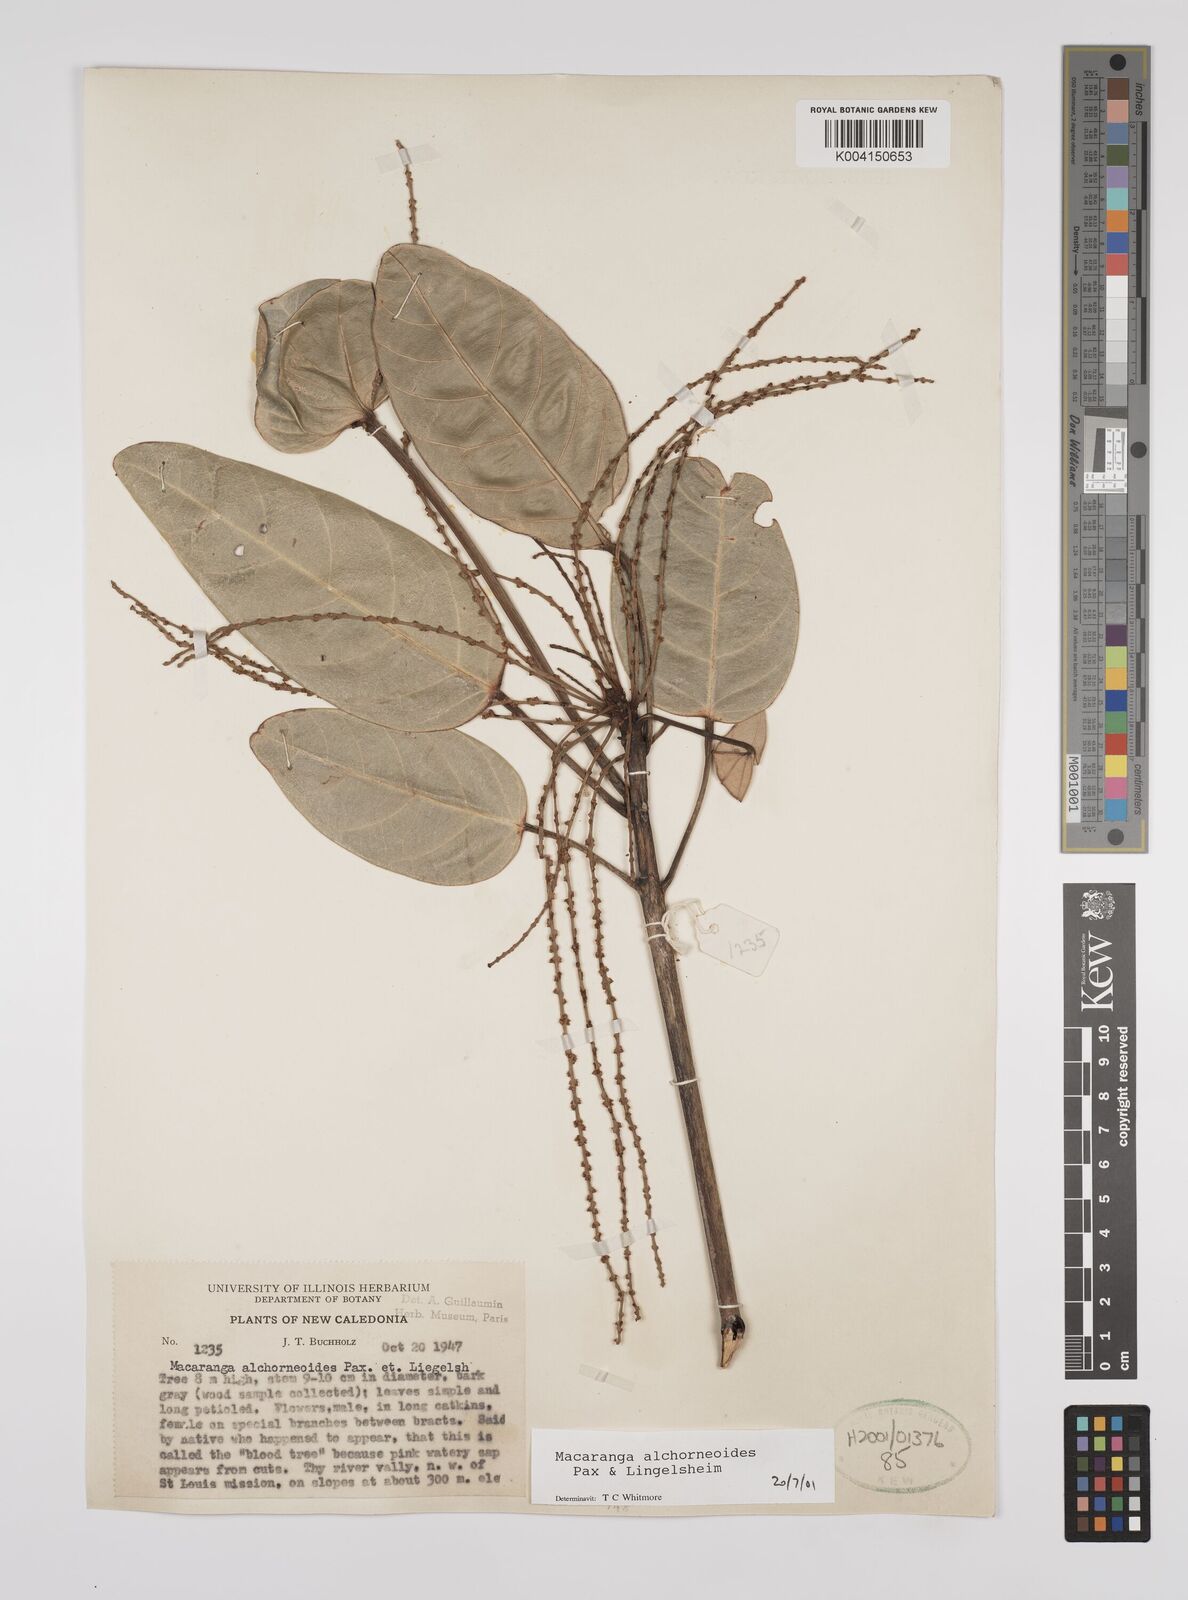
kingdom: Plantae
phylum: Tracheophyta
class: Magnoliopsida
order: Malpighiales
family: Euphorbiaceae
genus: Macaranga
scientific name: Macaranga alchorneoides
